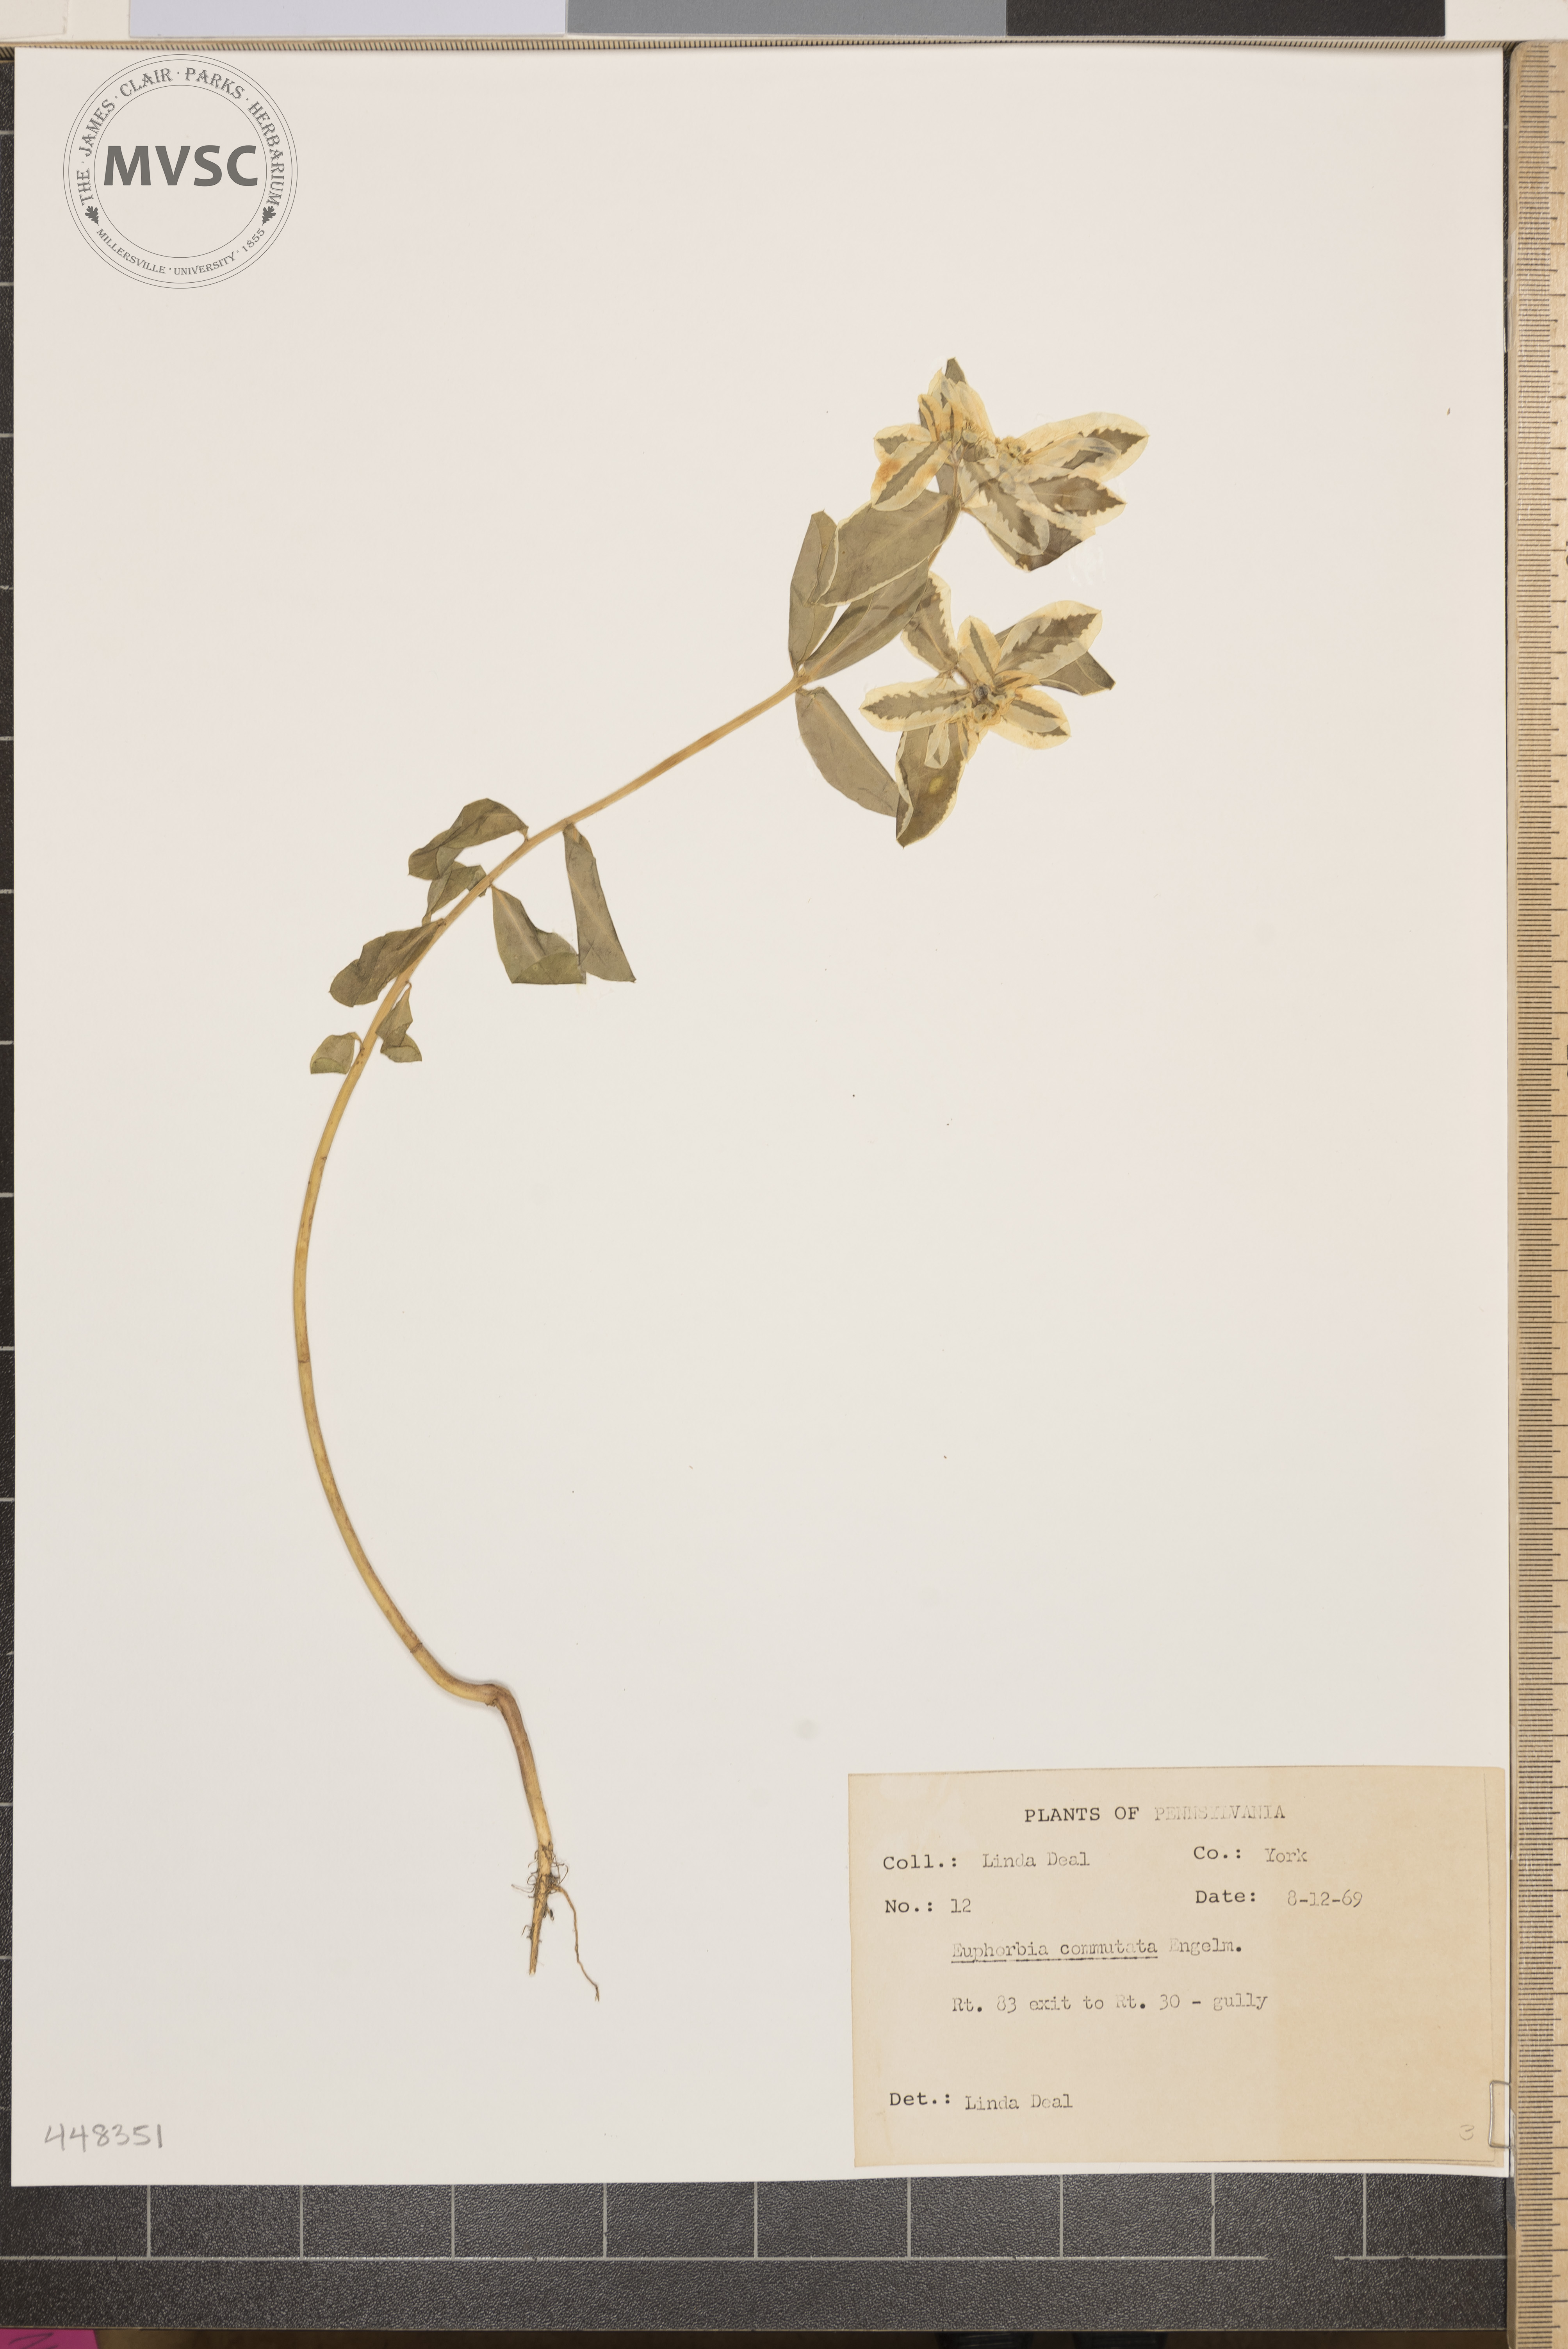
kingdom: Plantae
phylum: Tracheophyta
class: Magnoliopsida
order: Malpighiales
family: Euphorbiaceae
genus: Euphorbia
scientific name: Euphorbia marginata
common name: Ghostweed
